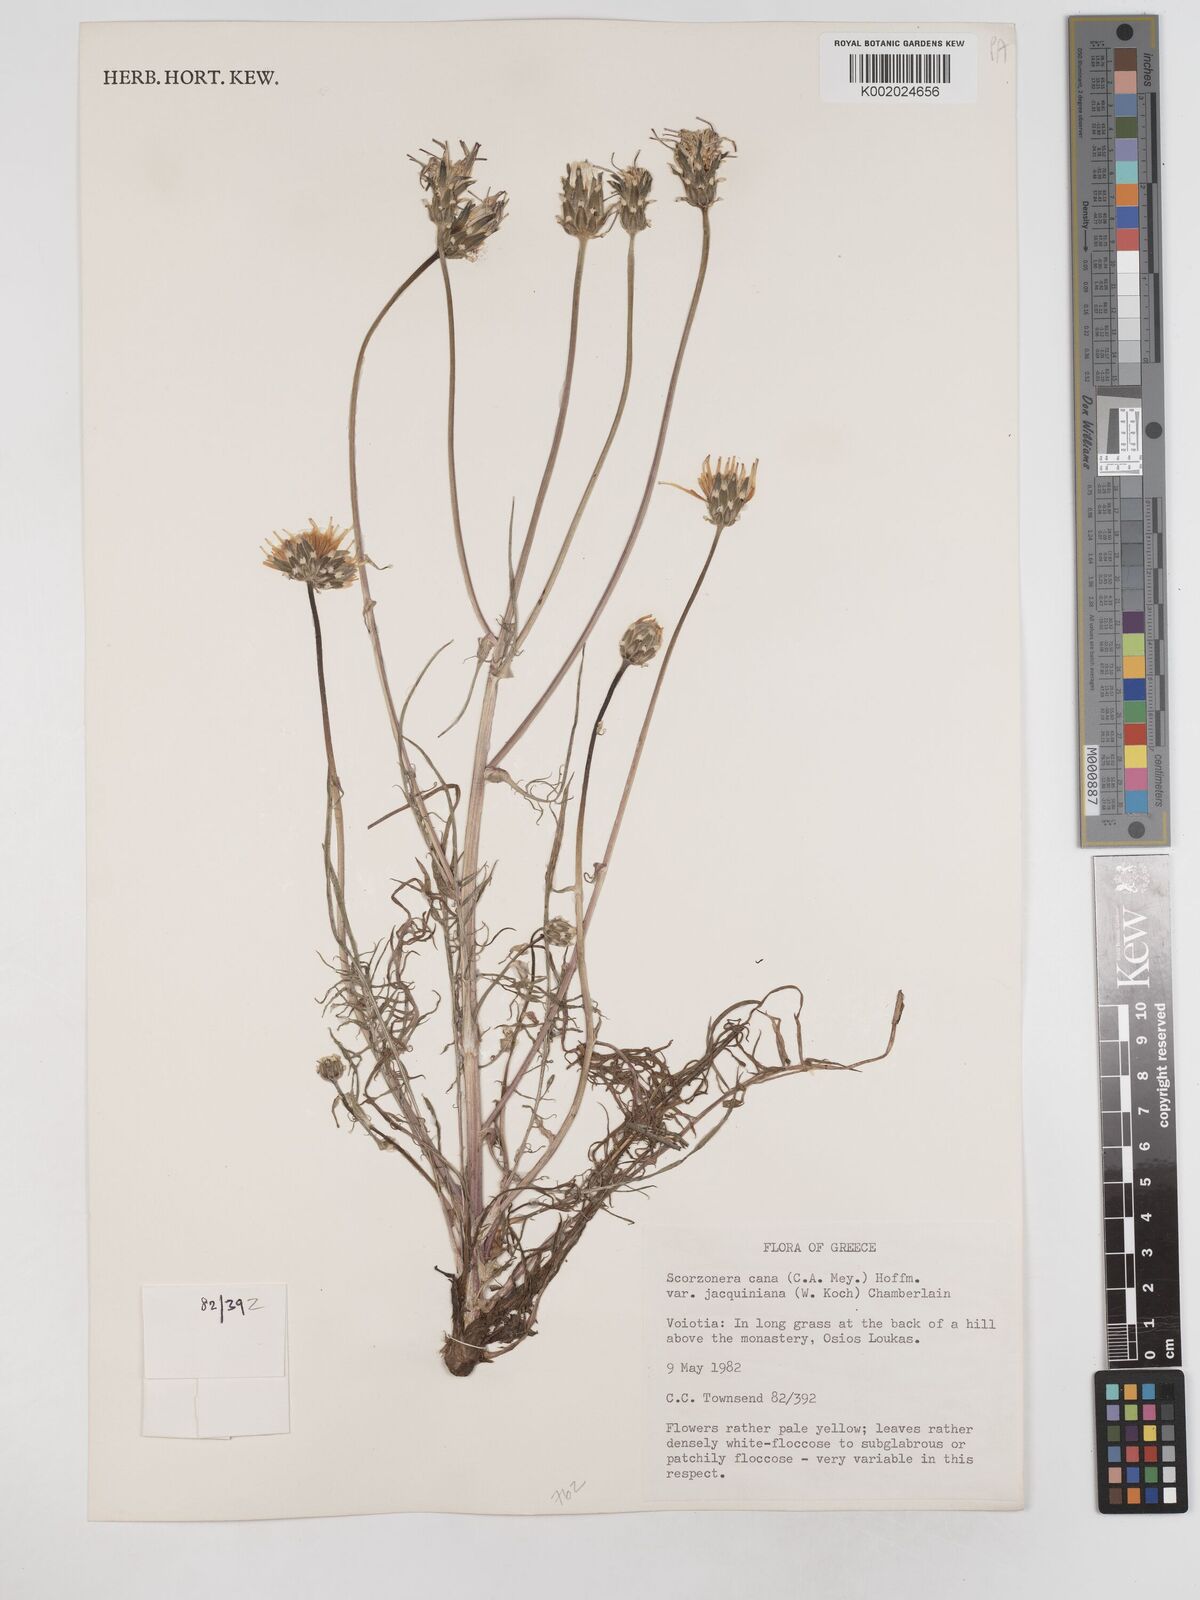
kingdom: Plantae
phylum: Tracheophyta
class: Magnoliopsida
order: Asterales
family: Asteraceae
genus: Scorzonera
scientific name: Scorzonera cana
